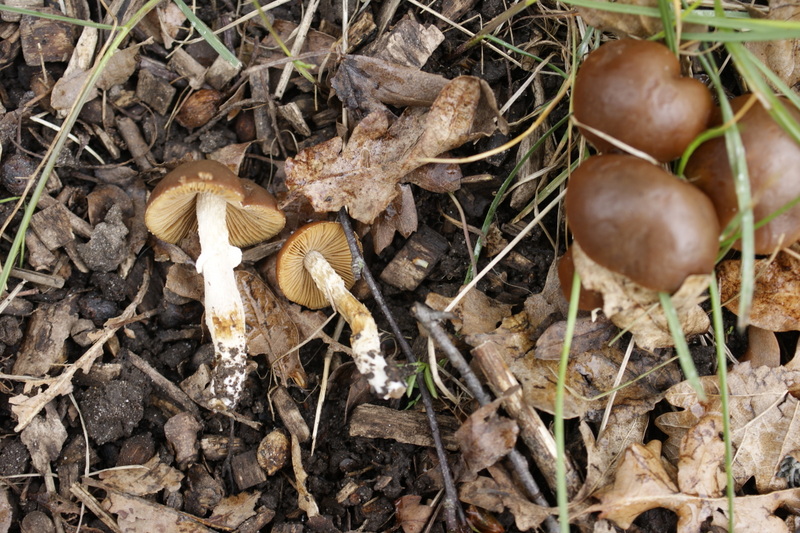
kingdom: Fungi
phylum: Basidiomycota
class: Agaricomycetes
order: Agaricales
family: Bolbitiaceae
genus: Conocybe
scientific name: Conocybe aporos
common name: tidlig dansehat
